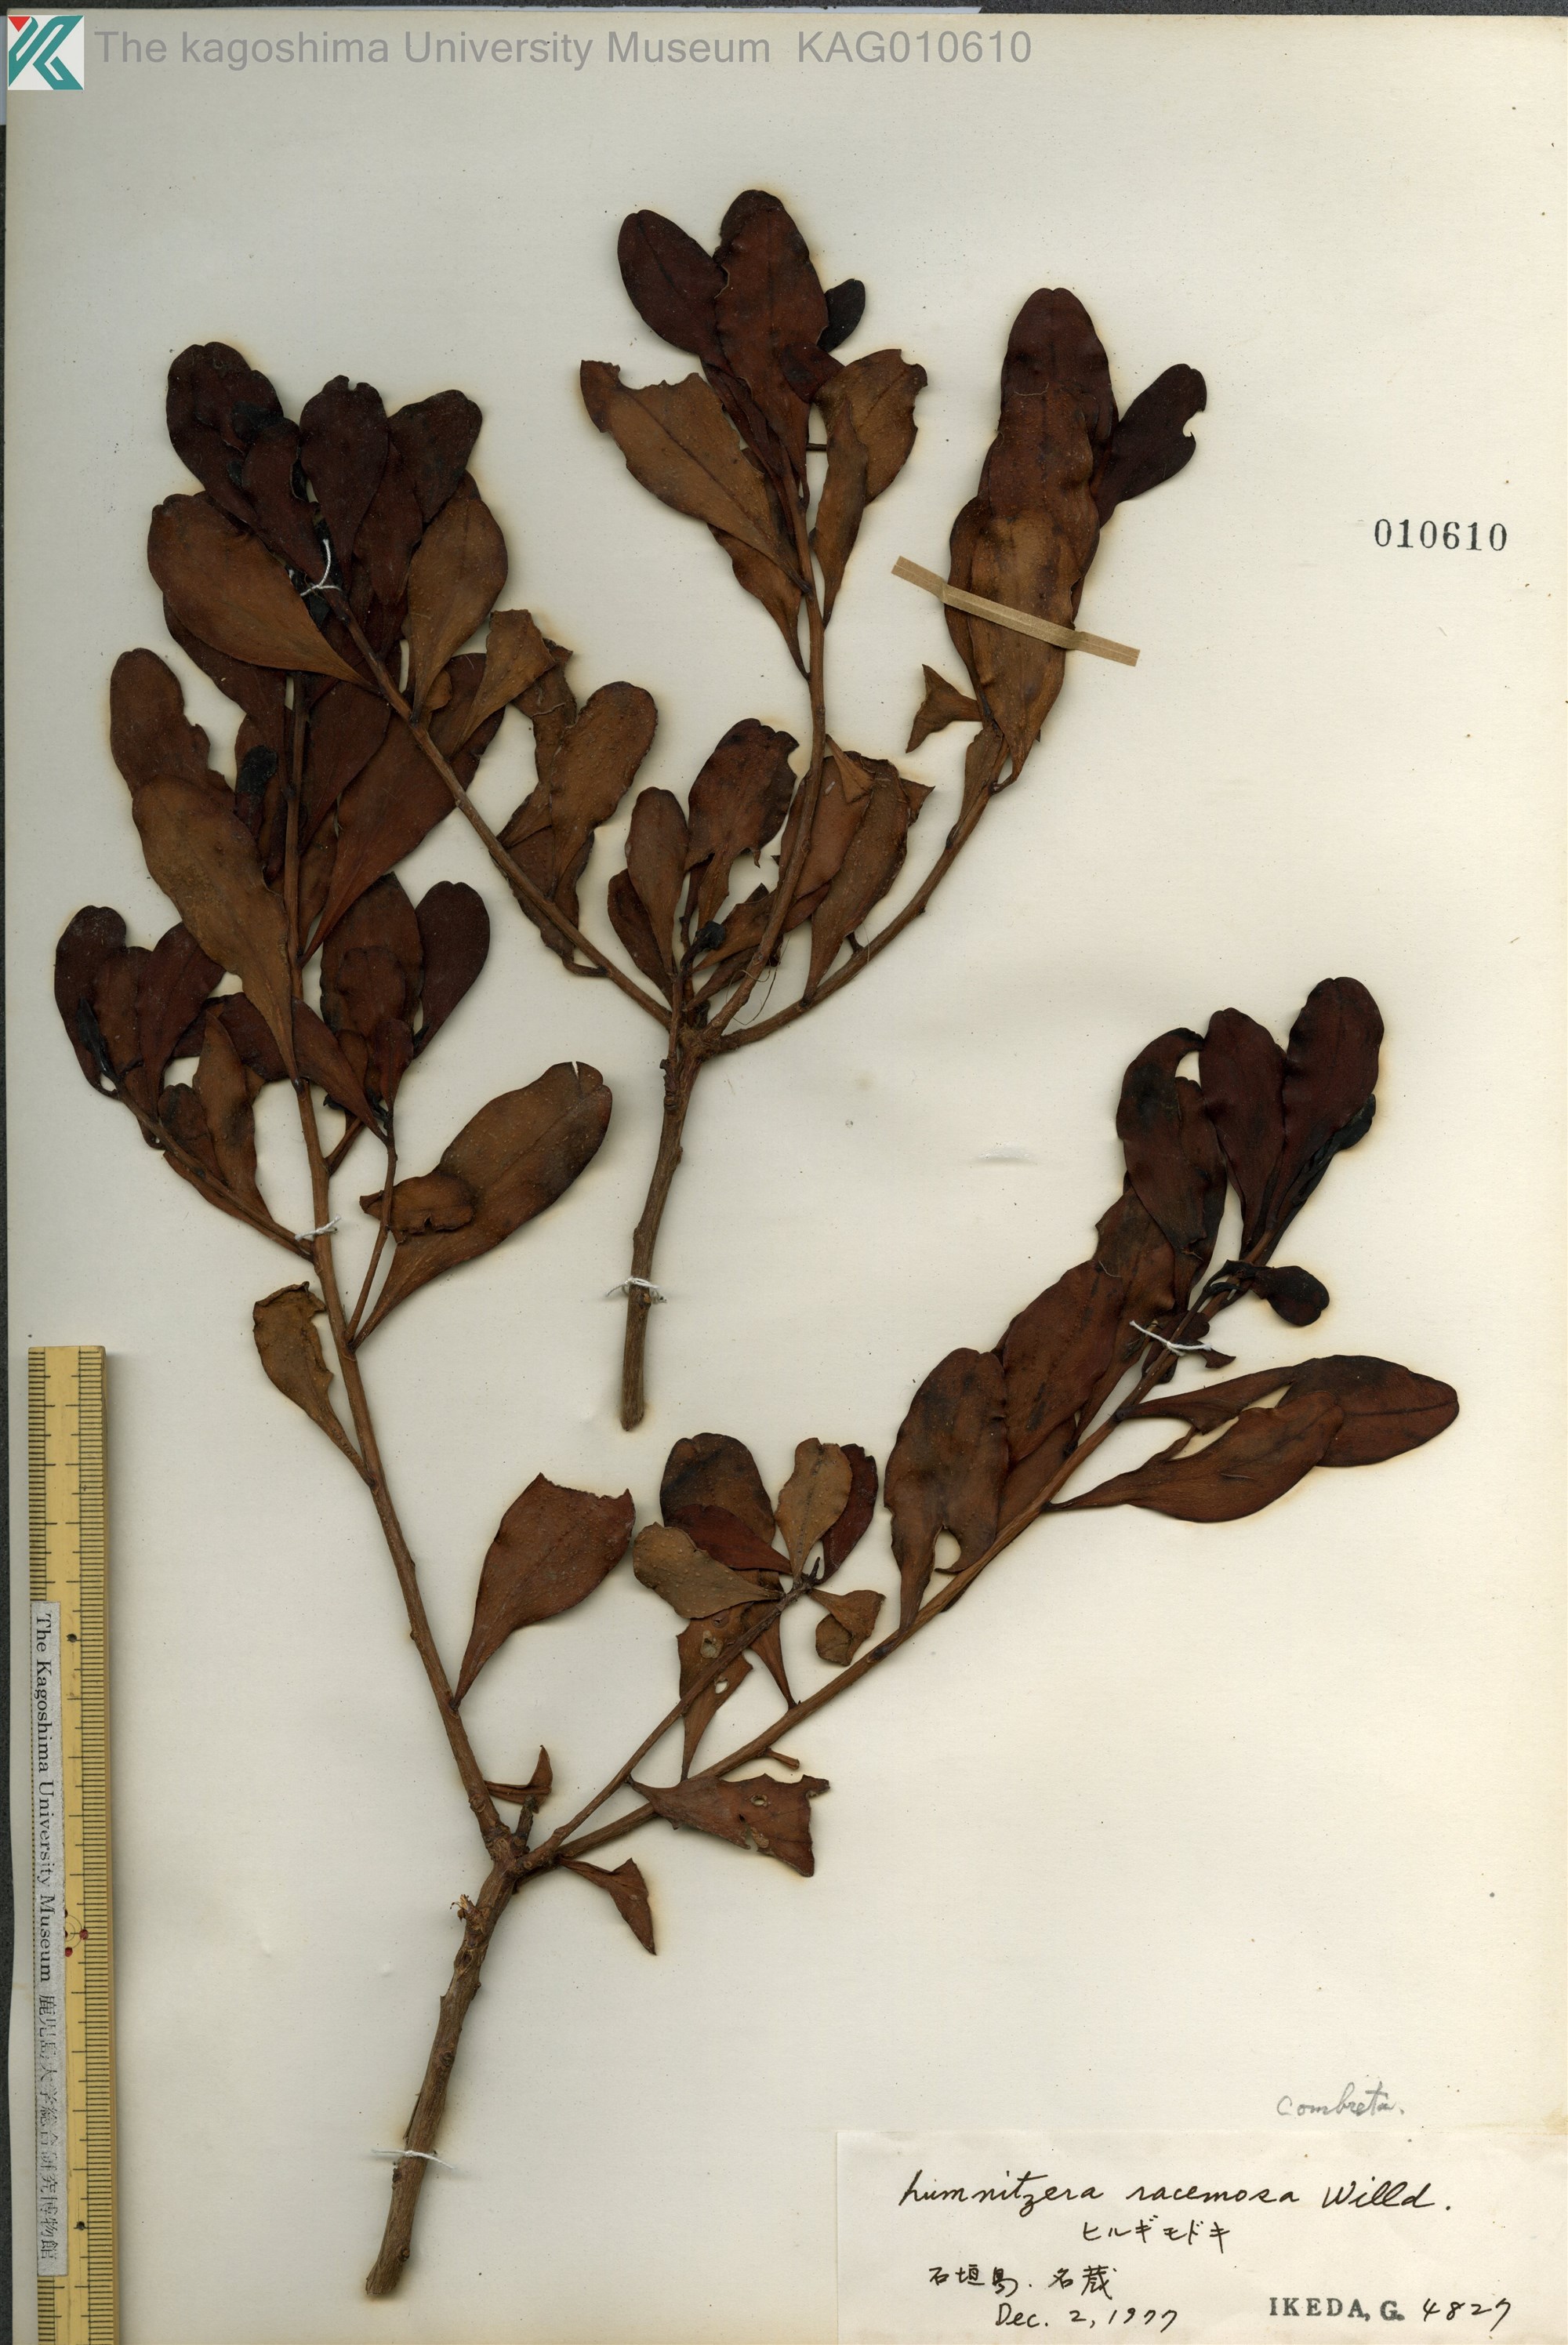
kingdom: Plantae
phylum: Tracheophyta
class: Magnoliopsida
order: Myrtales
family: Combretaceae
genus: Lumnitzera
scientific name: Lumnitzera racemosa
